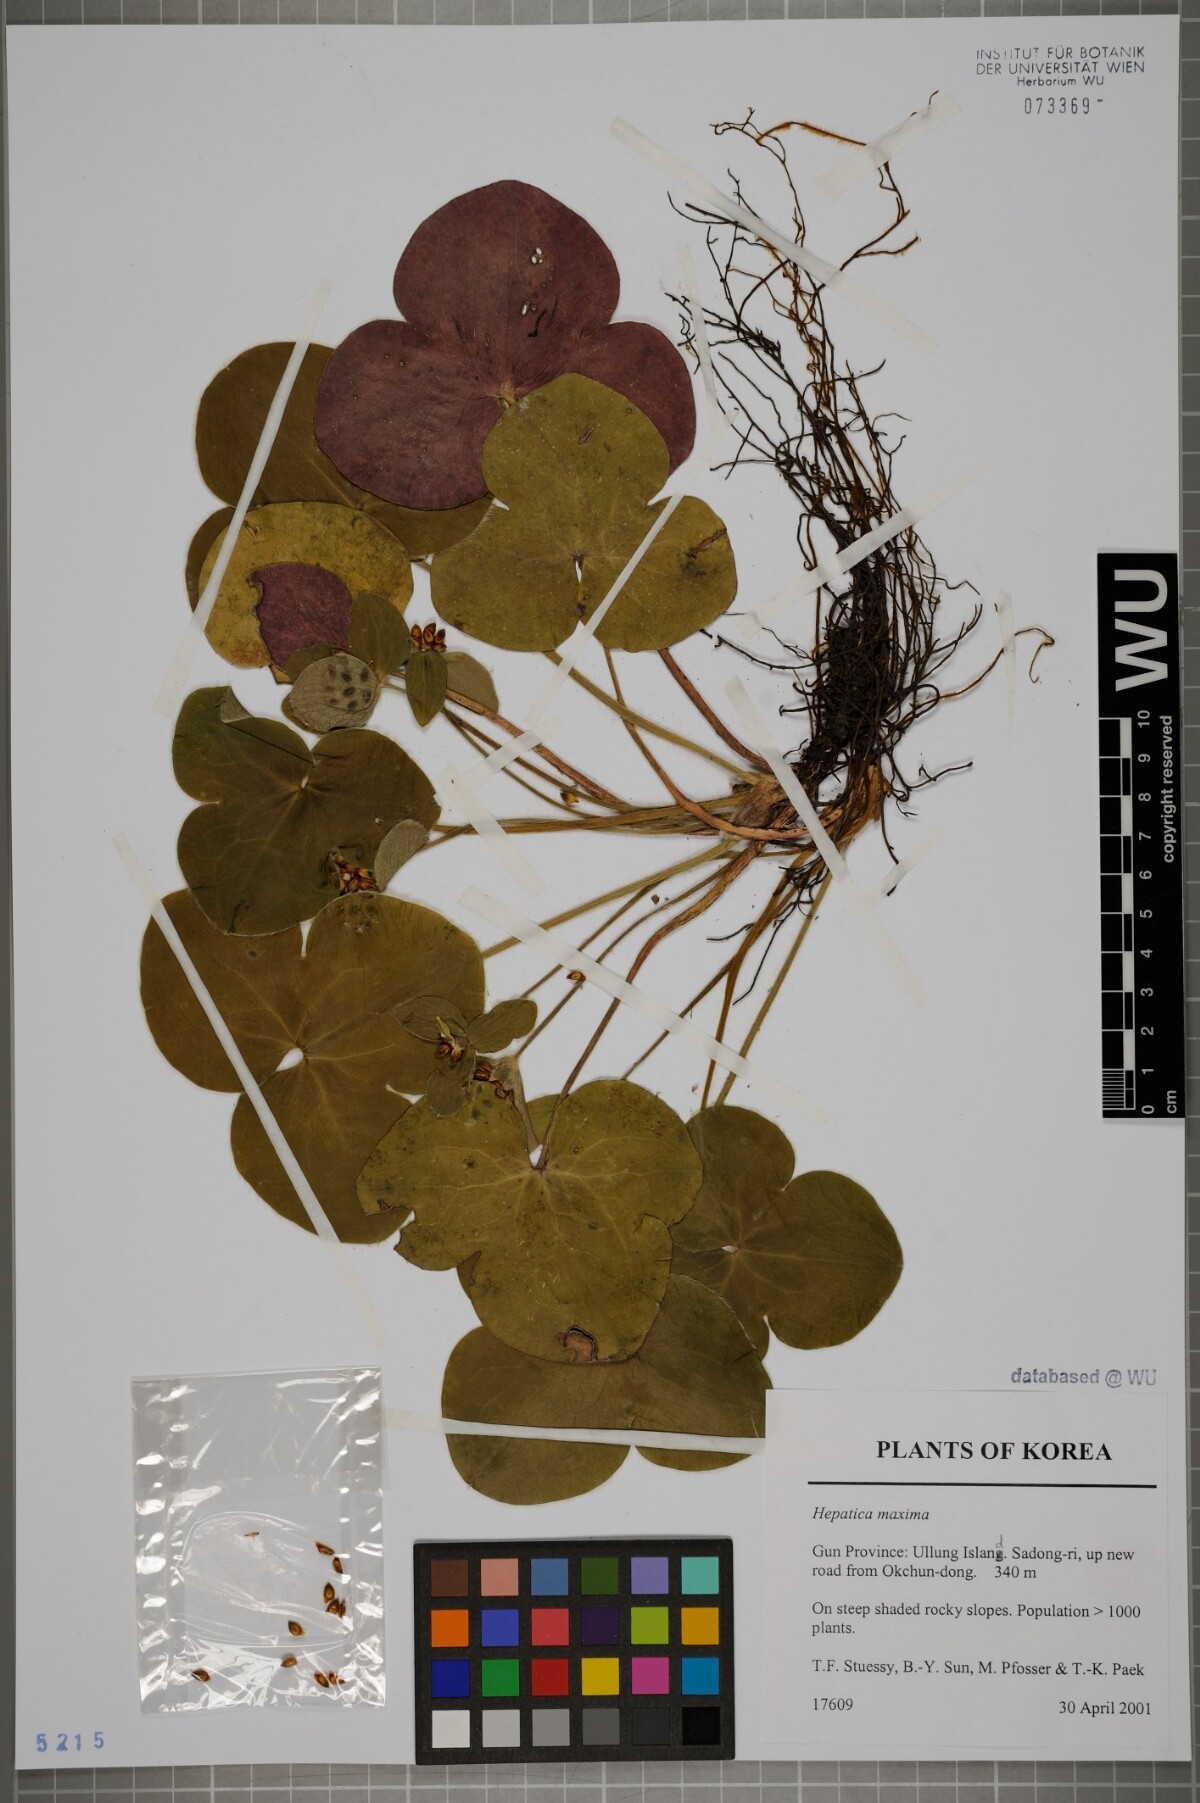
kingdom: Plantae
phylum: Tracheophyta
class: Magnoliopsida
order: Ranunculales
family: Ranunculaceae
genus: Hepatica
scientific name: Hepatica maxima
